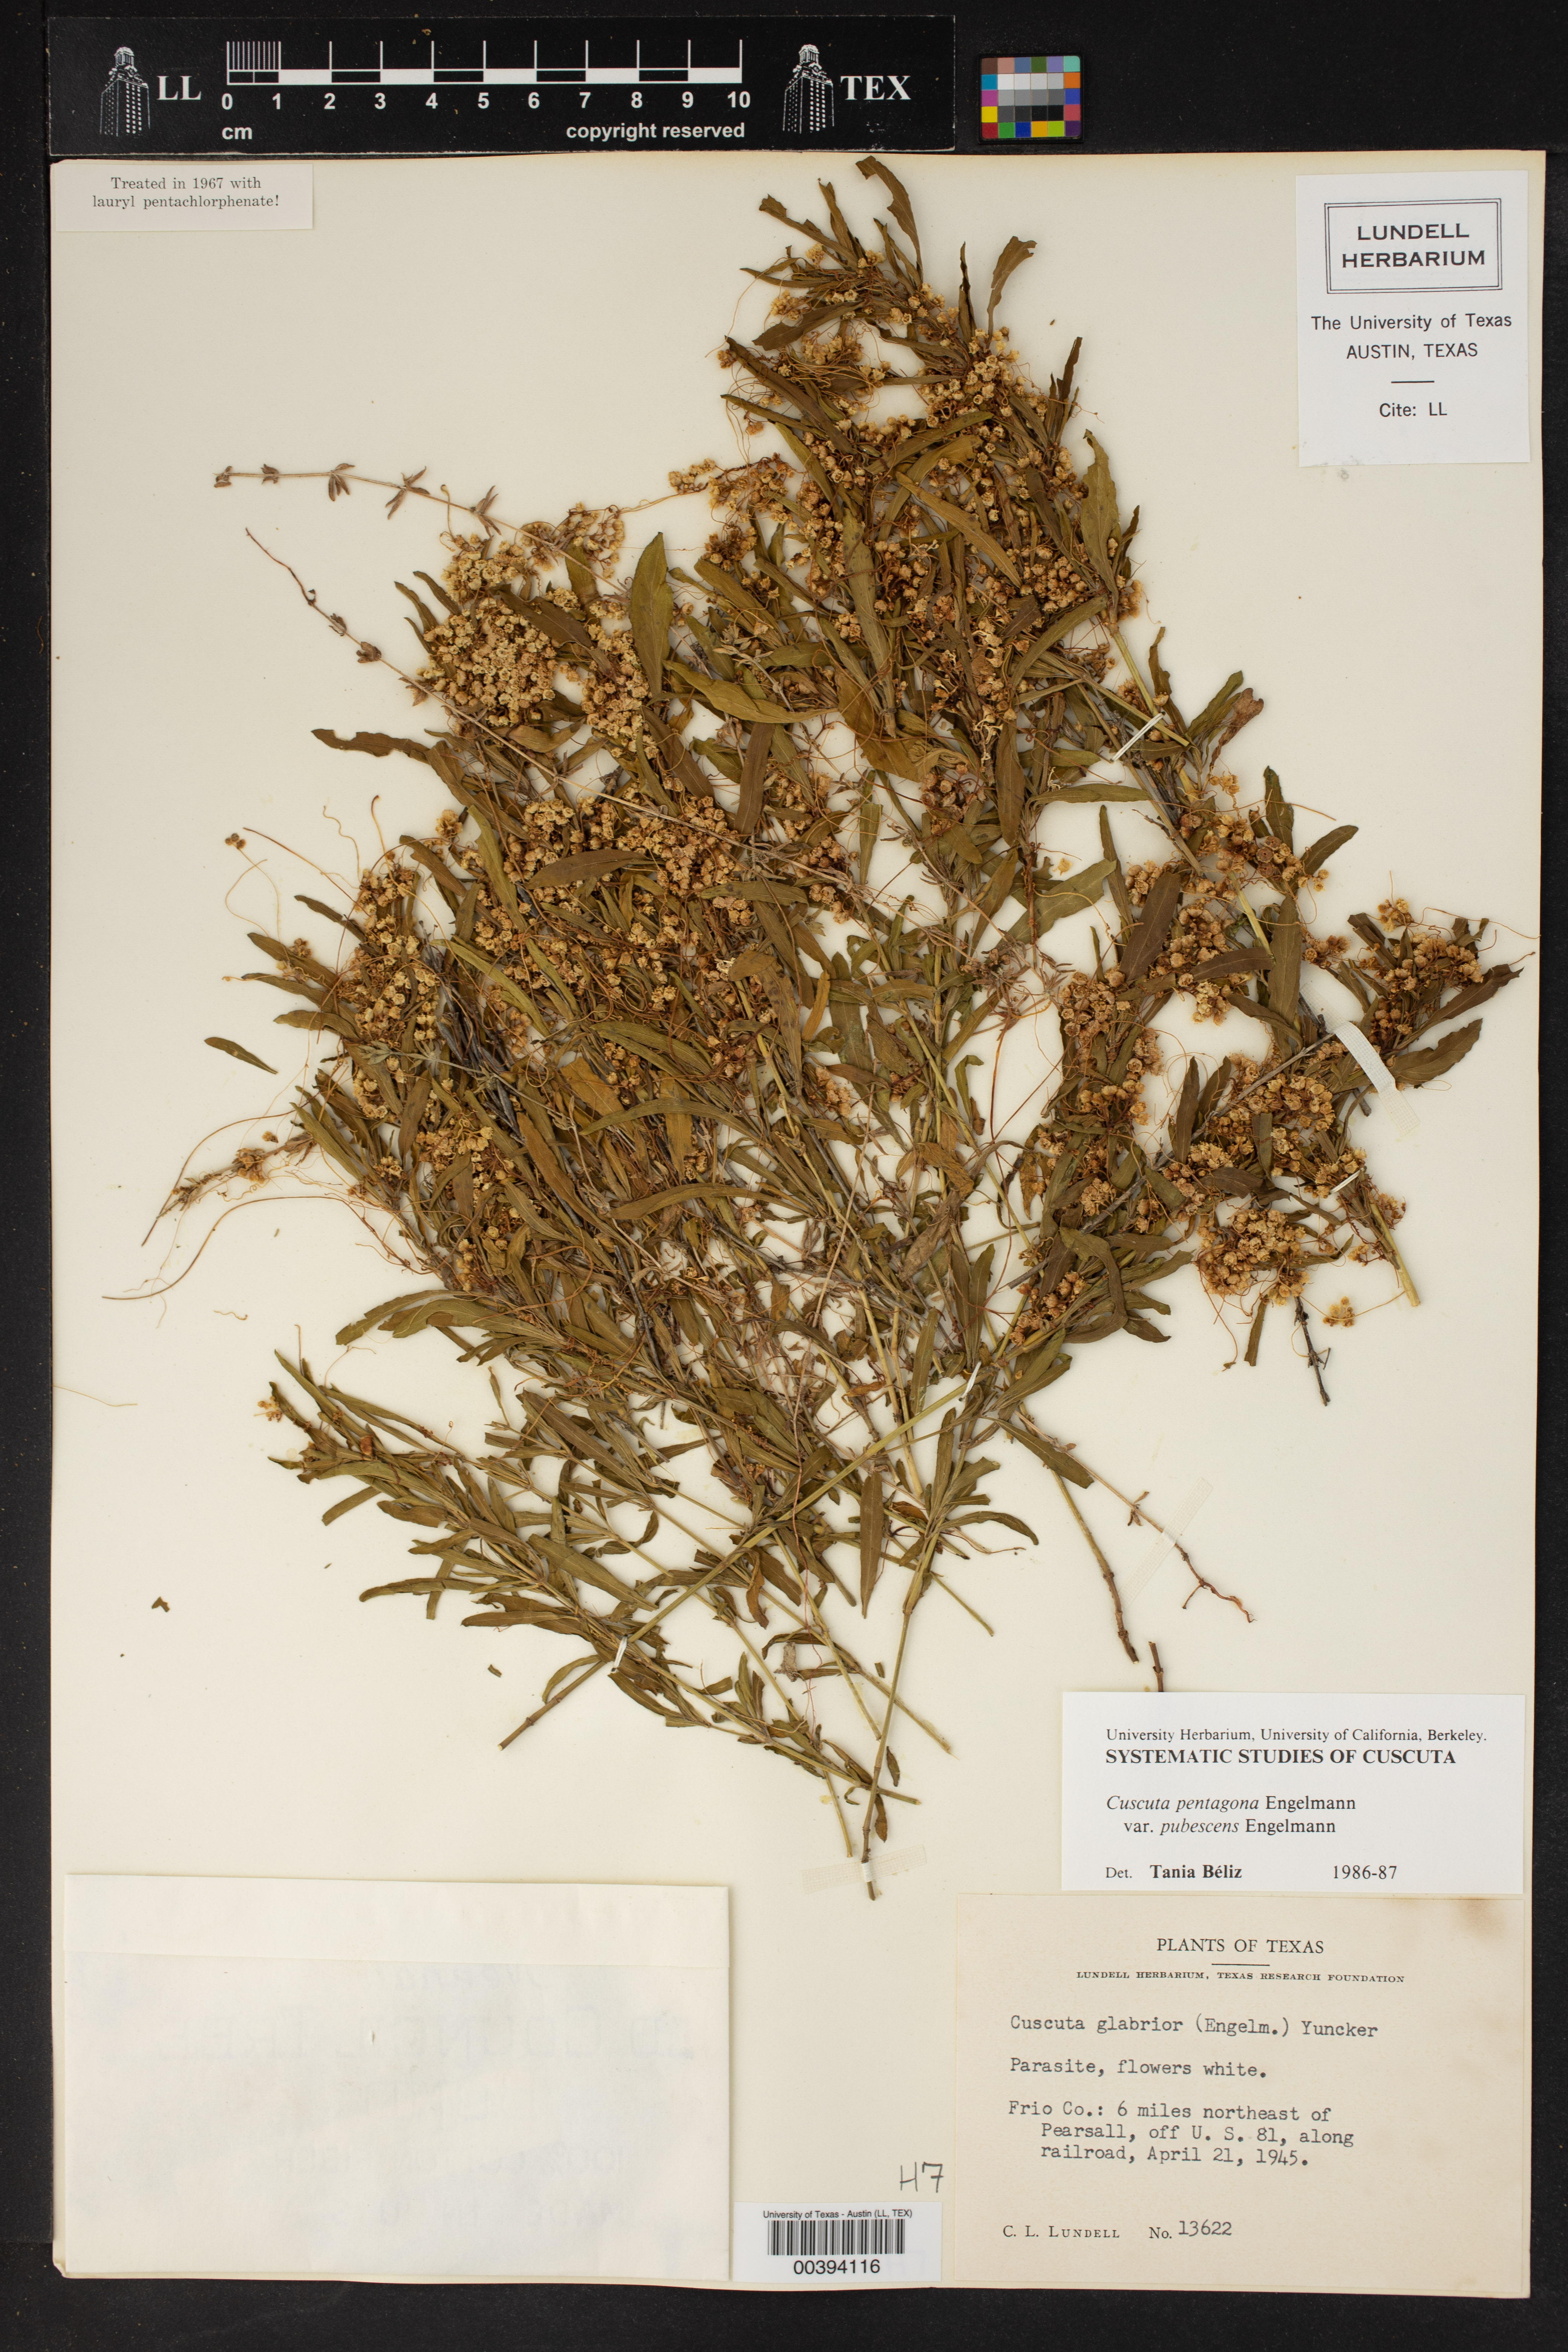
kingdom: Plantae
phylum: Tracheophyta
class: Magnoliopsida
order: Solanales
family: Convolvulaceae
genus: Cuscuta
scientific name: Cuscuta glabrior
